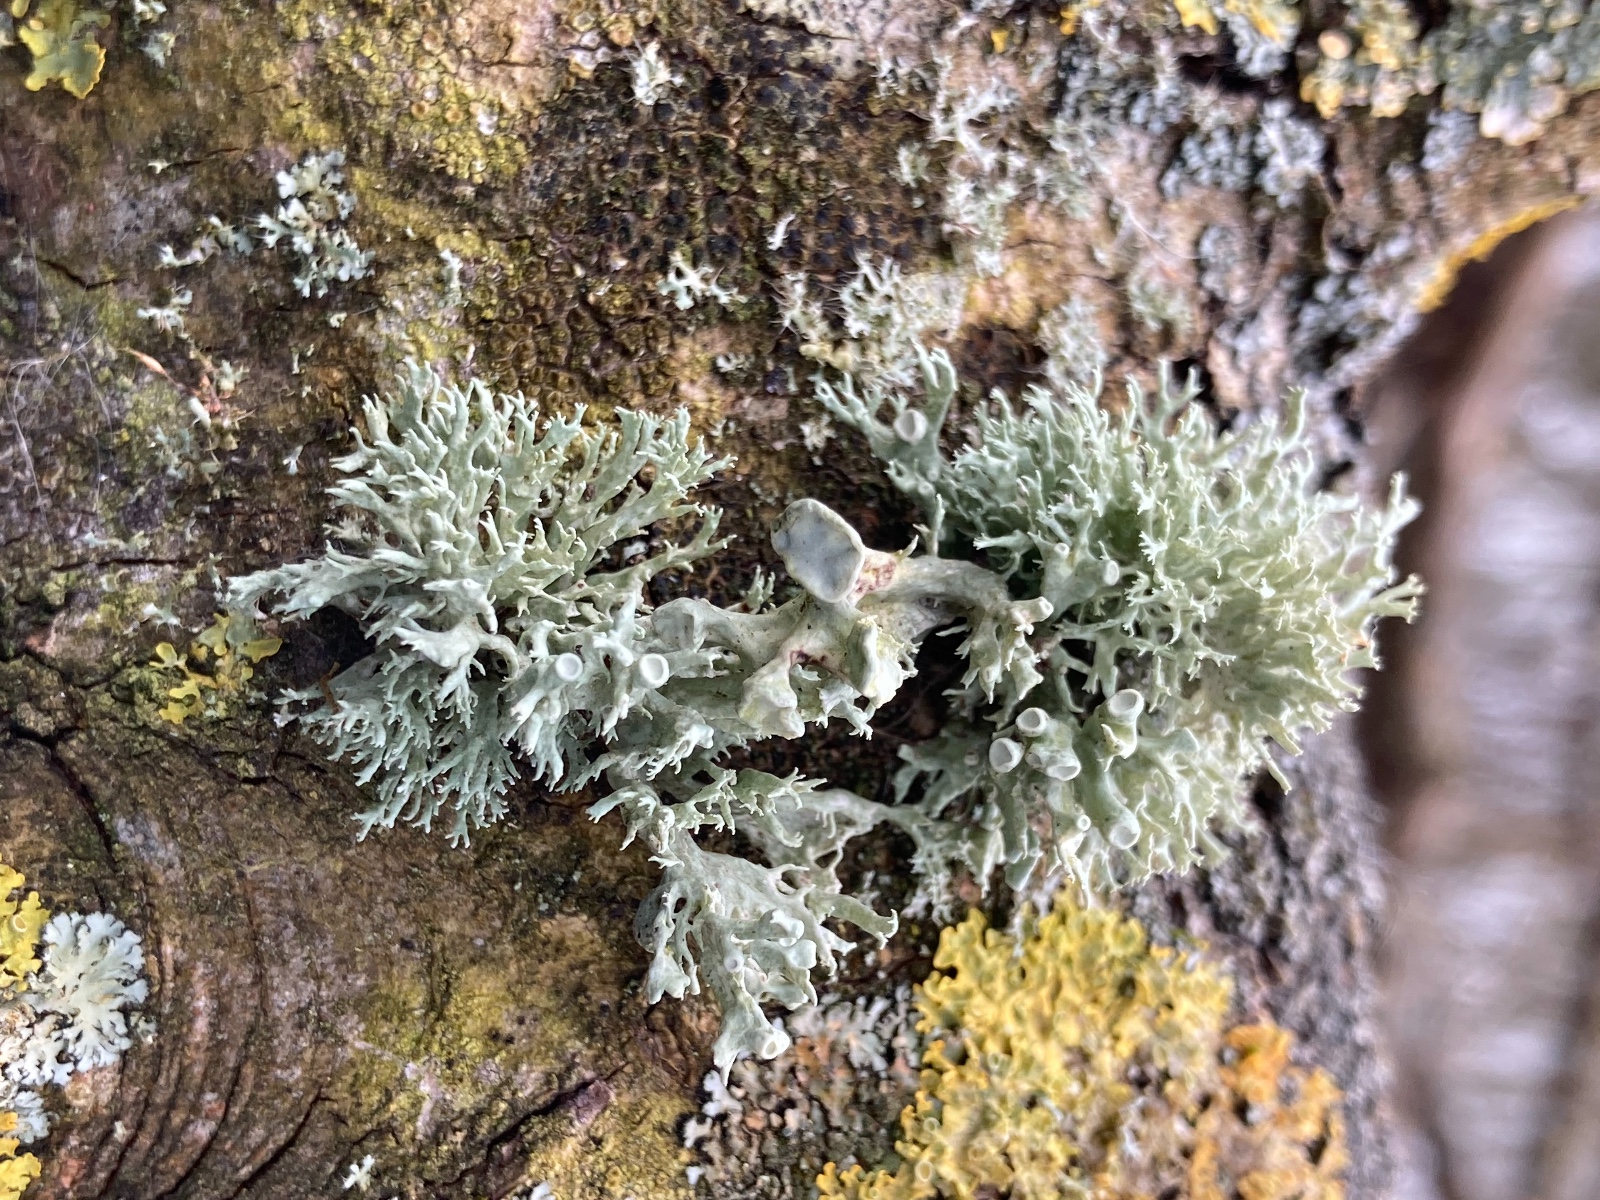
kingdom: Fungi
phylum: Ascomycota
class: Lecanoromycetes
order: Lecanorales
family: Ramalinaceae
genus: Ramalina
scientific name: Ramalina fastigiata
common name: tue-grenlav
